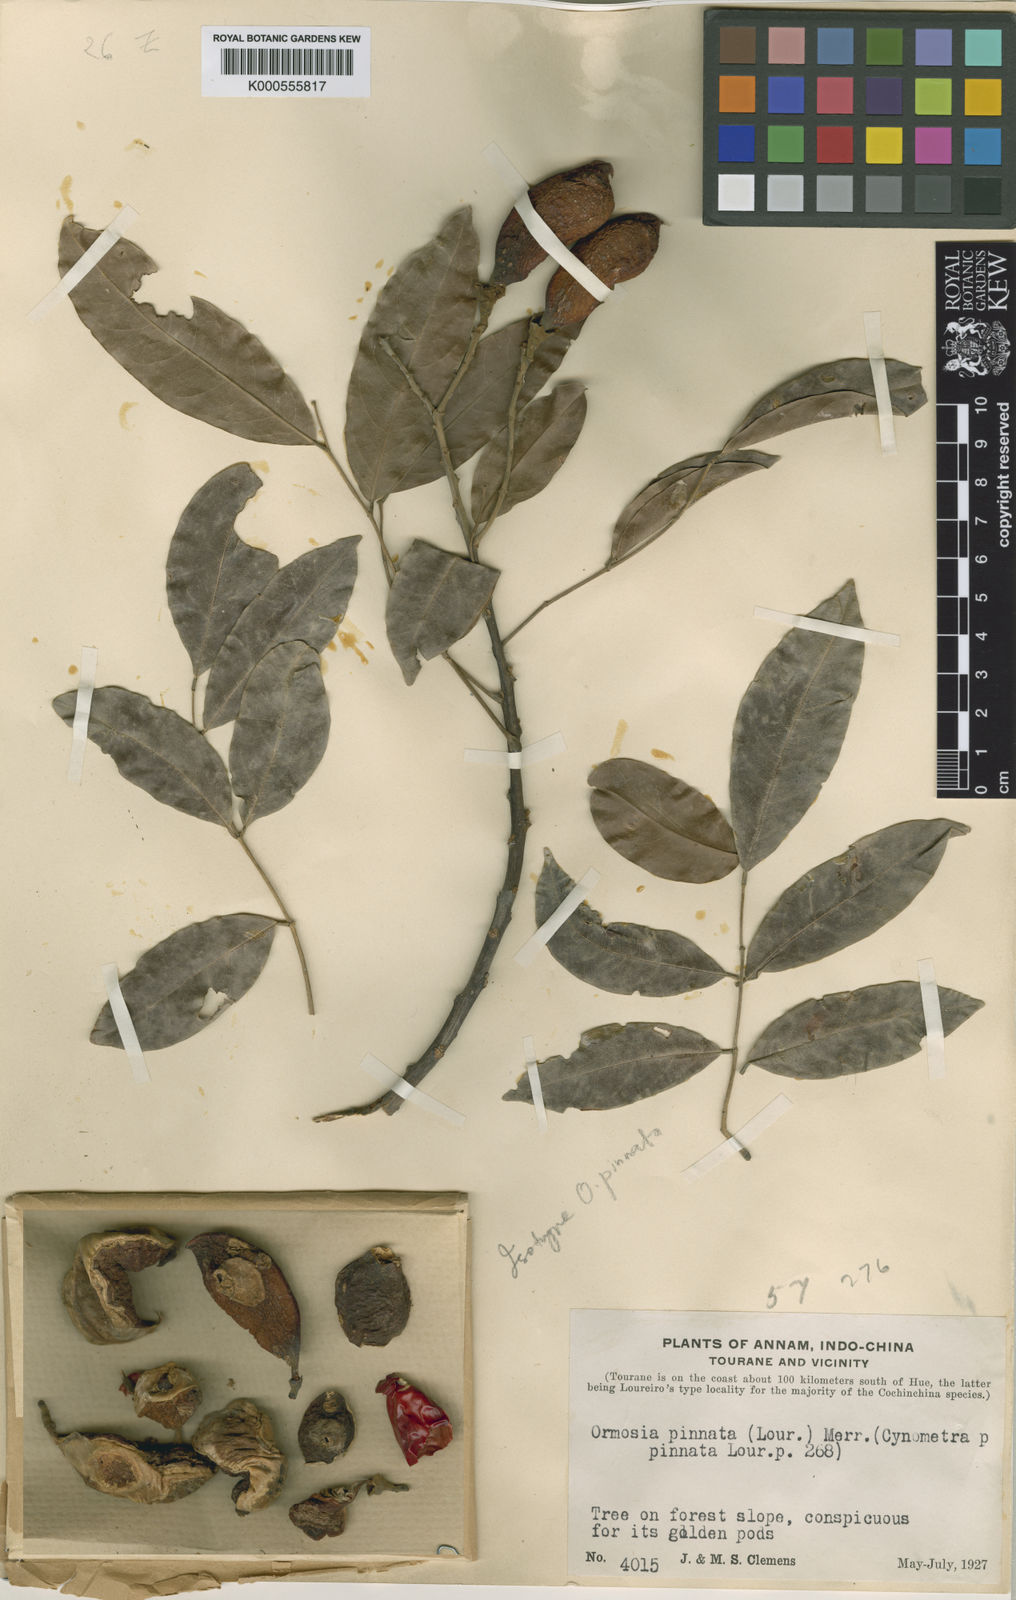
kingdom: Plantae
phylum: Tracheophyta
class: Magnoliopsida
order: Fabales
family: Fabaceae
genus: Ormosia
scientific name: Ormosia pinnata
